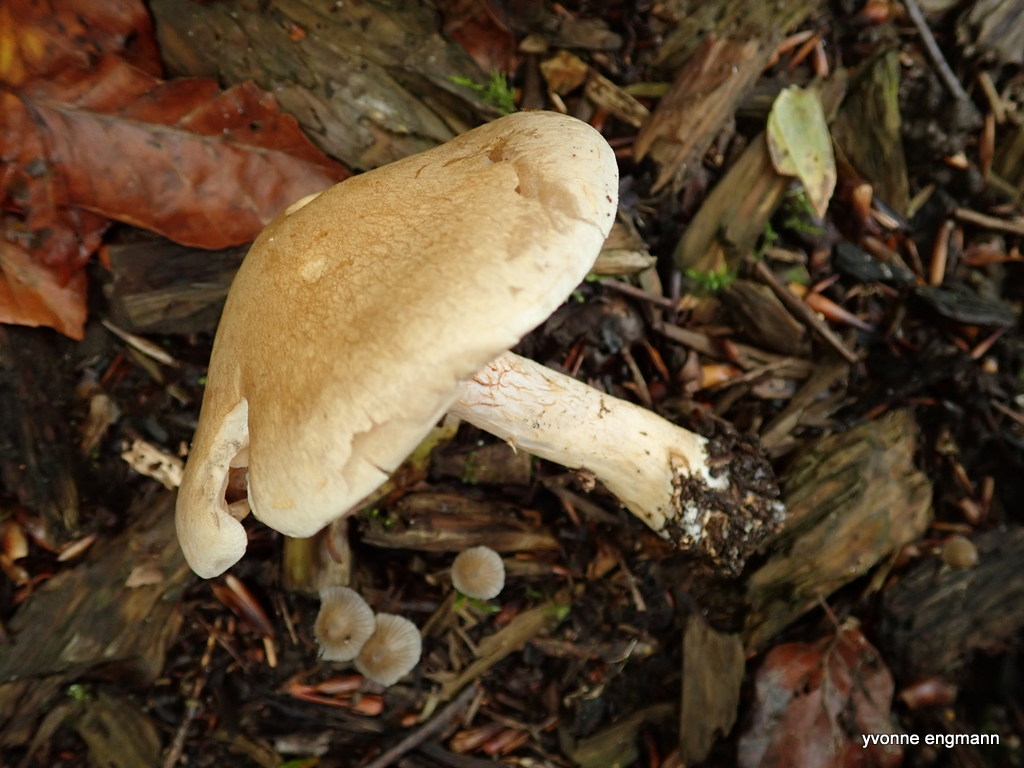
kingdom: Fungi
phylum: Basidiomycota
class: Agaricomycetes
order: Agaricales
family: Cortinariaceae
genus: Cortinarius
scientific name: Cortinarius
